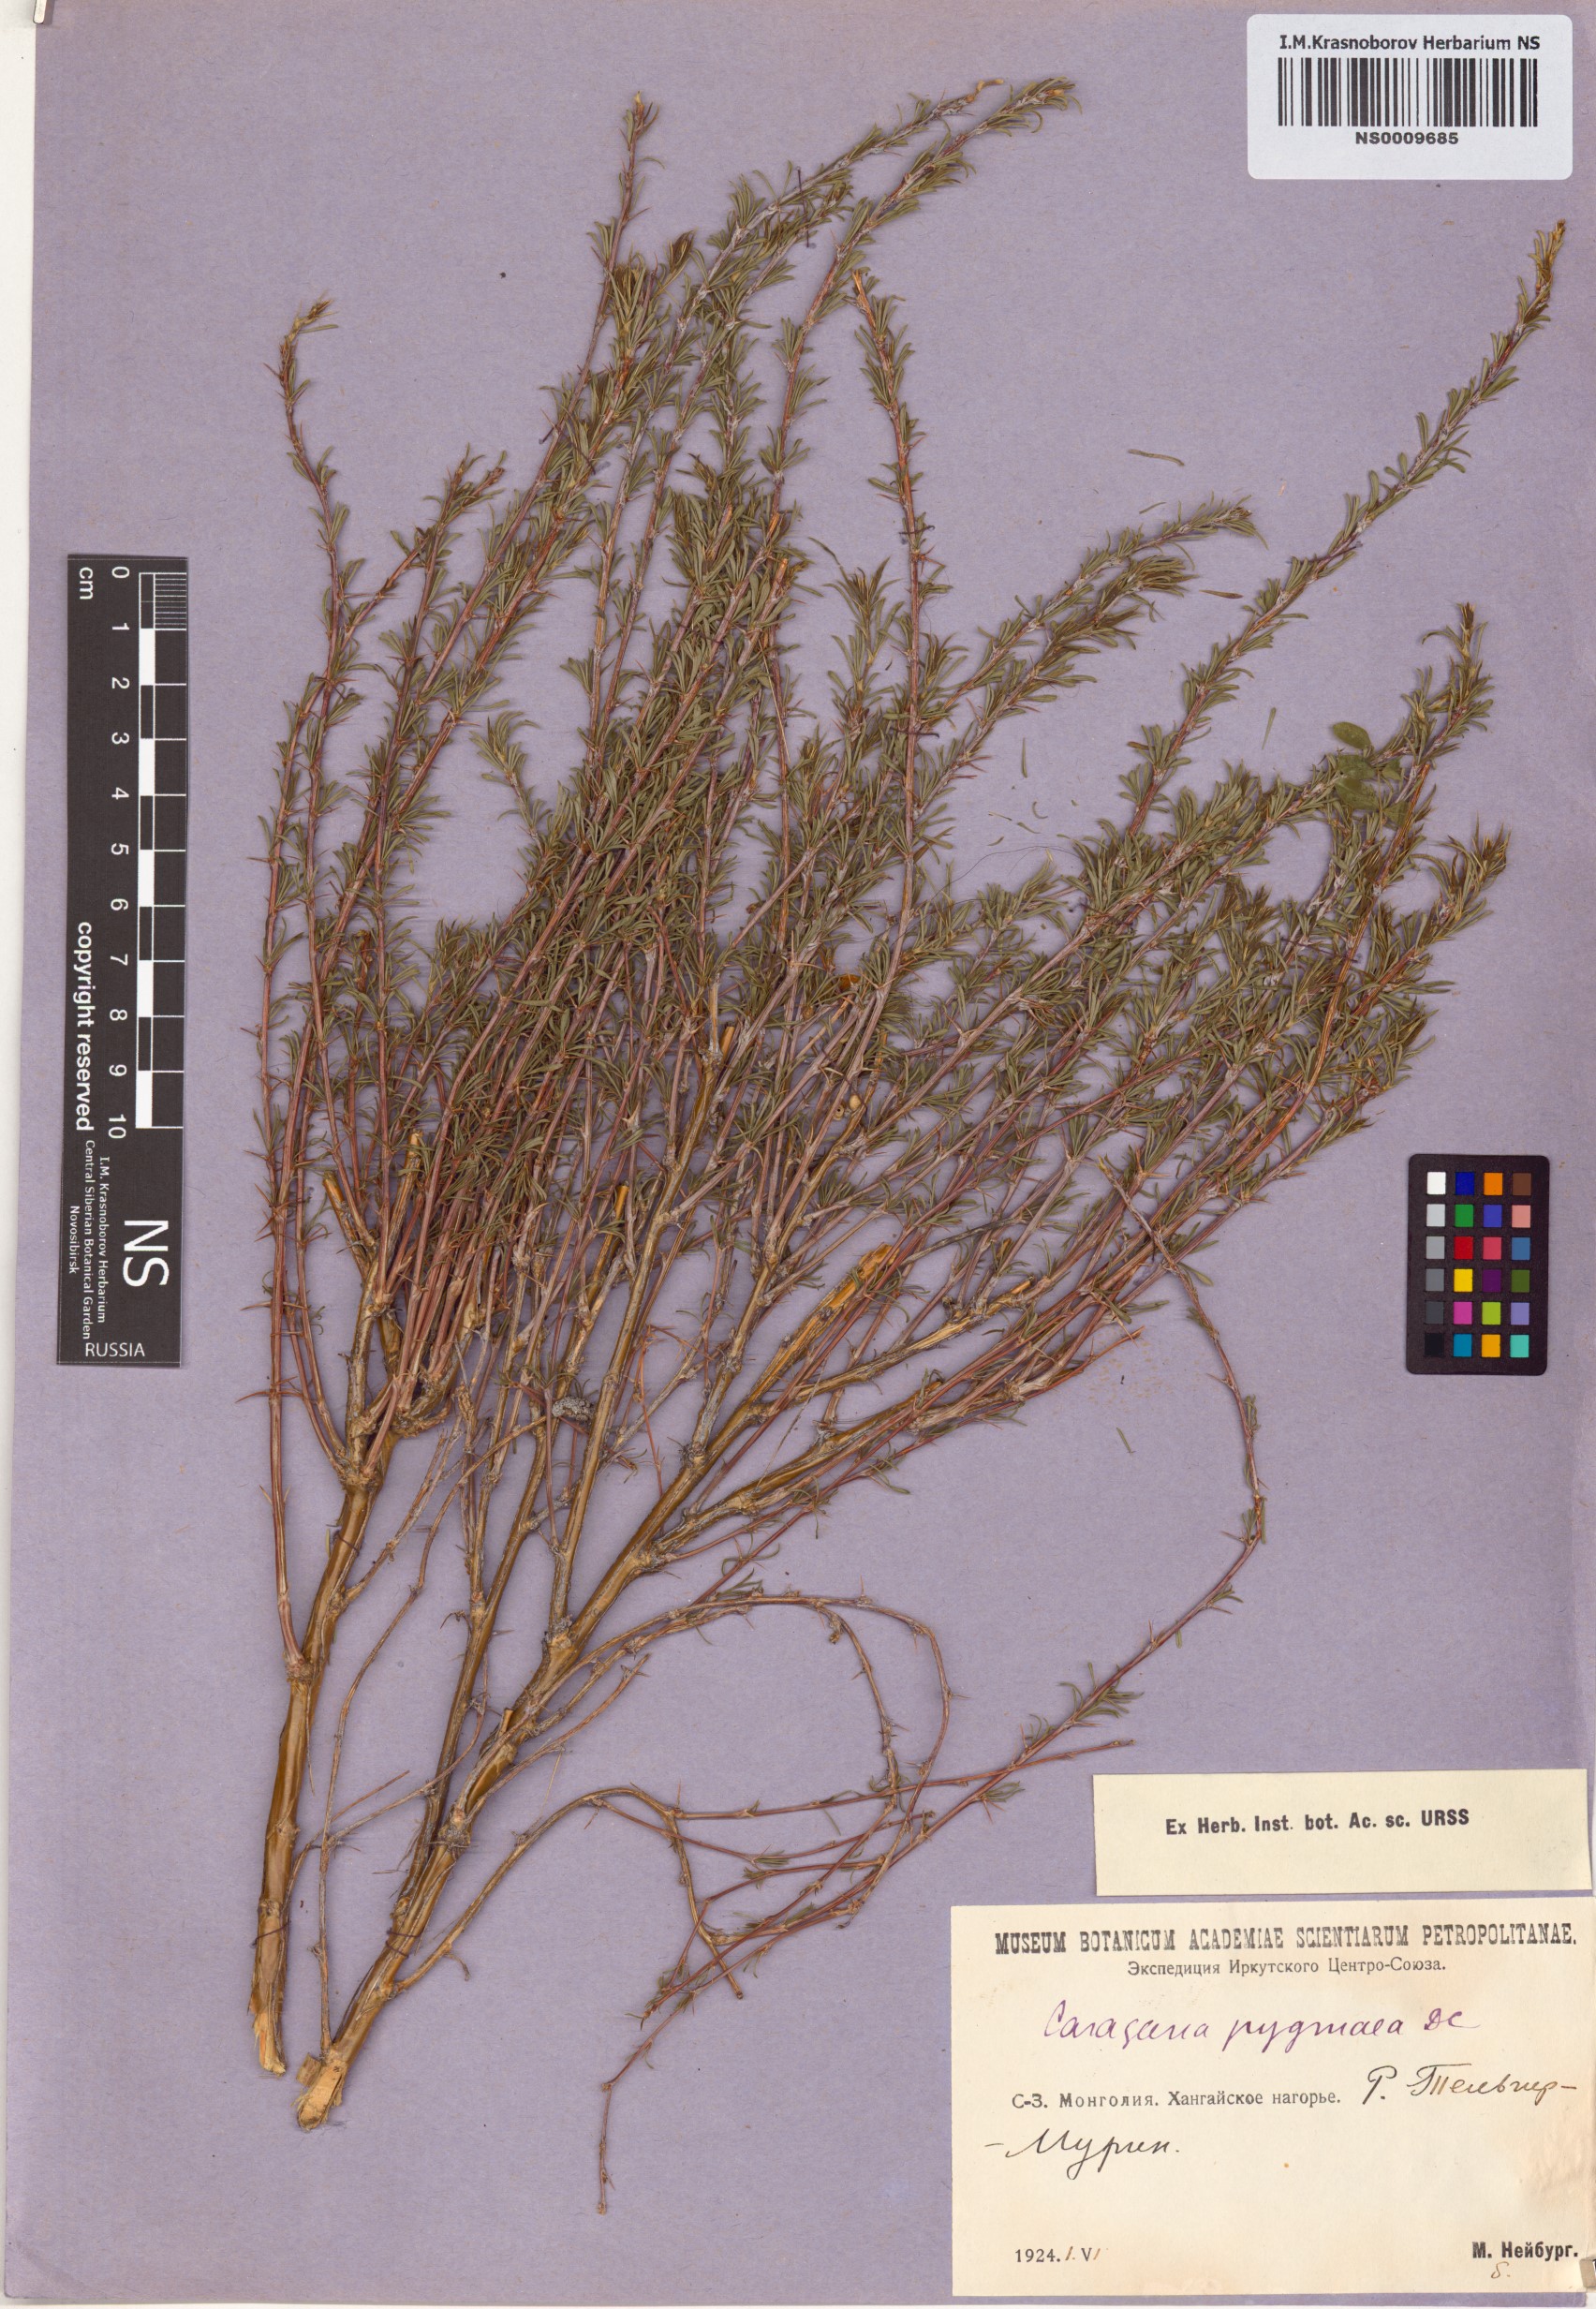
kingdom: Plantae
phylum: Tracheophyta
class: Magnoliopsida
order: Fabales
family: Fabaceae
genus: Caragana
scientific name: Caragana pygmaea
